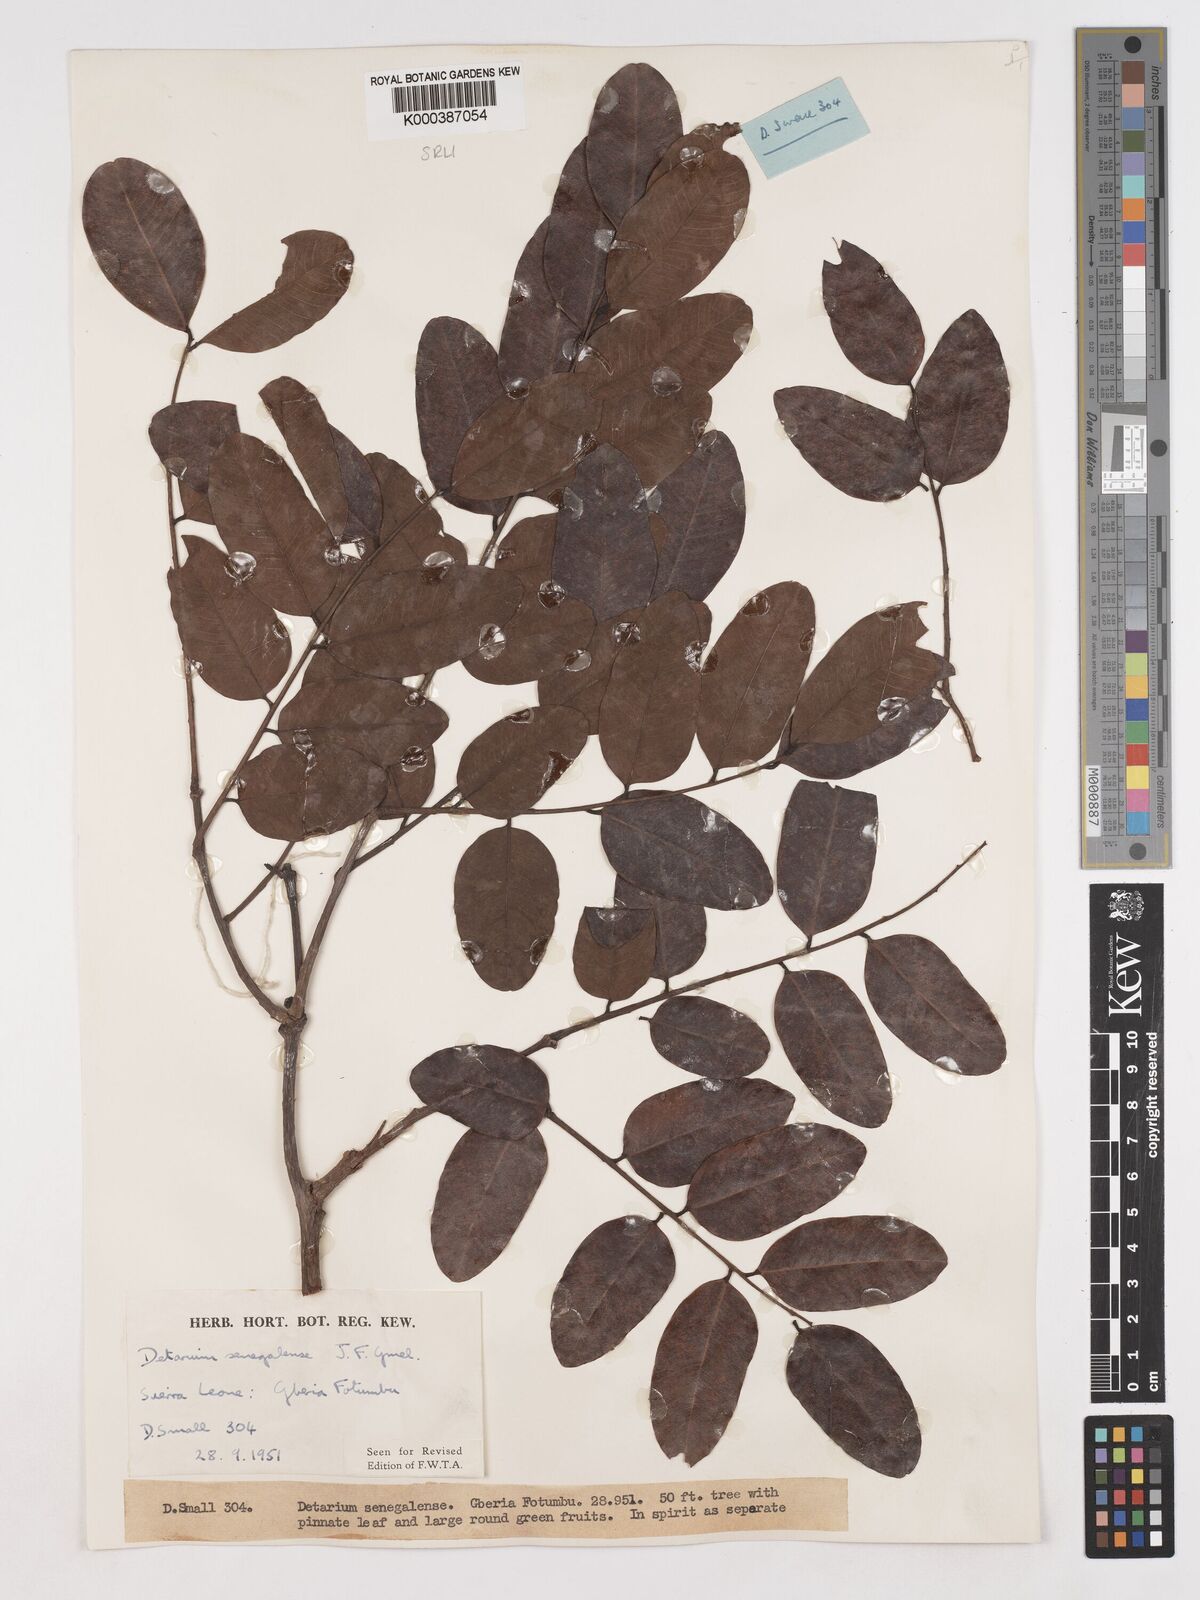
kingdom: Plantae
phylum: Tracheophyta
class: Magnoliopsida
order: Fabales
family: Fabaceae
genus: Detarium
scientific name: Detarium microcarpum
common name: Sweet dattock
